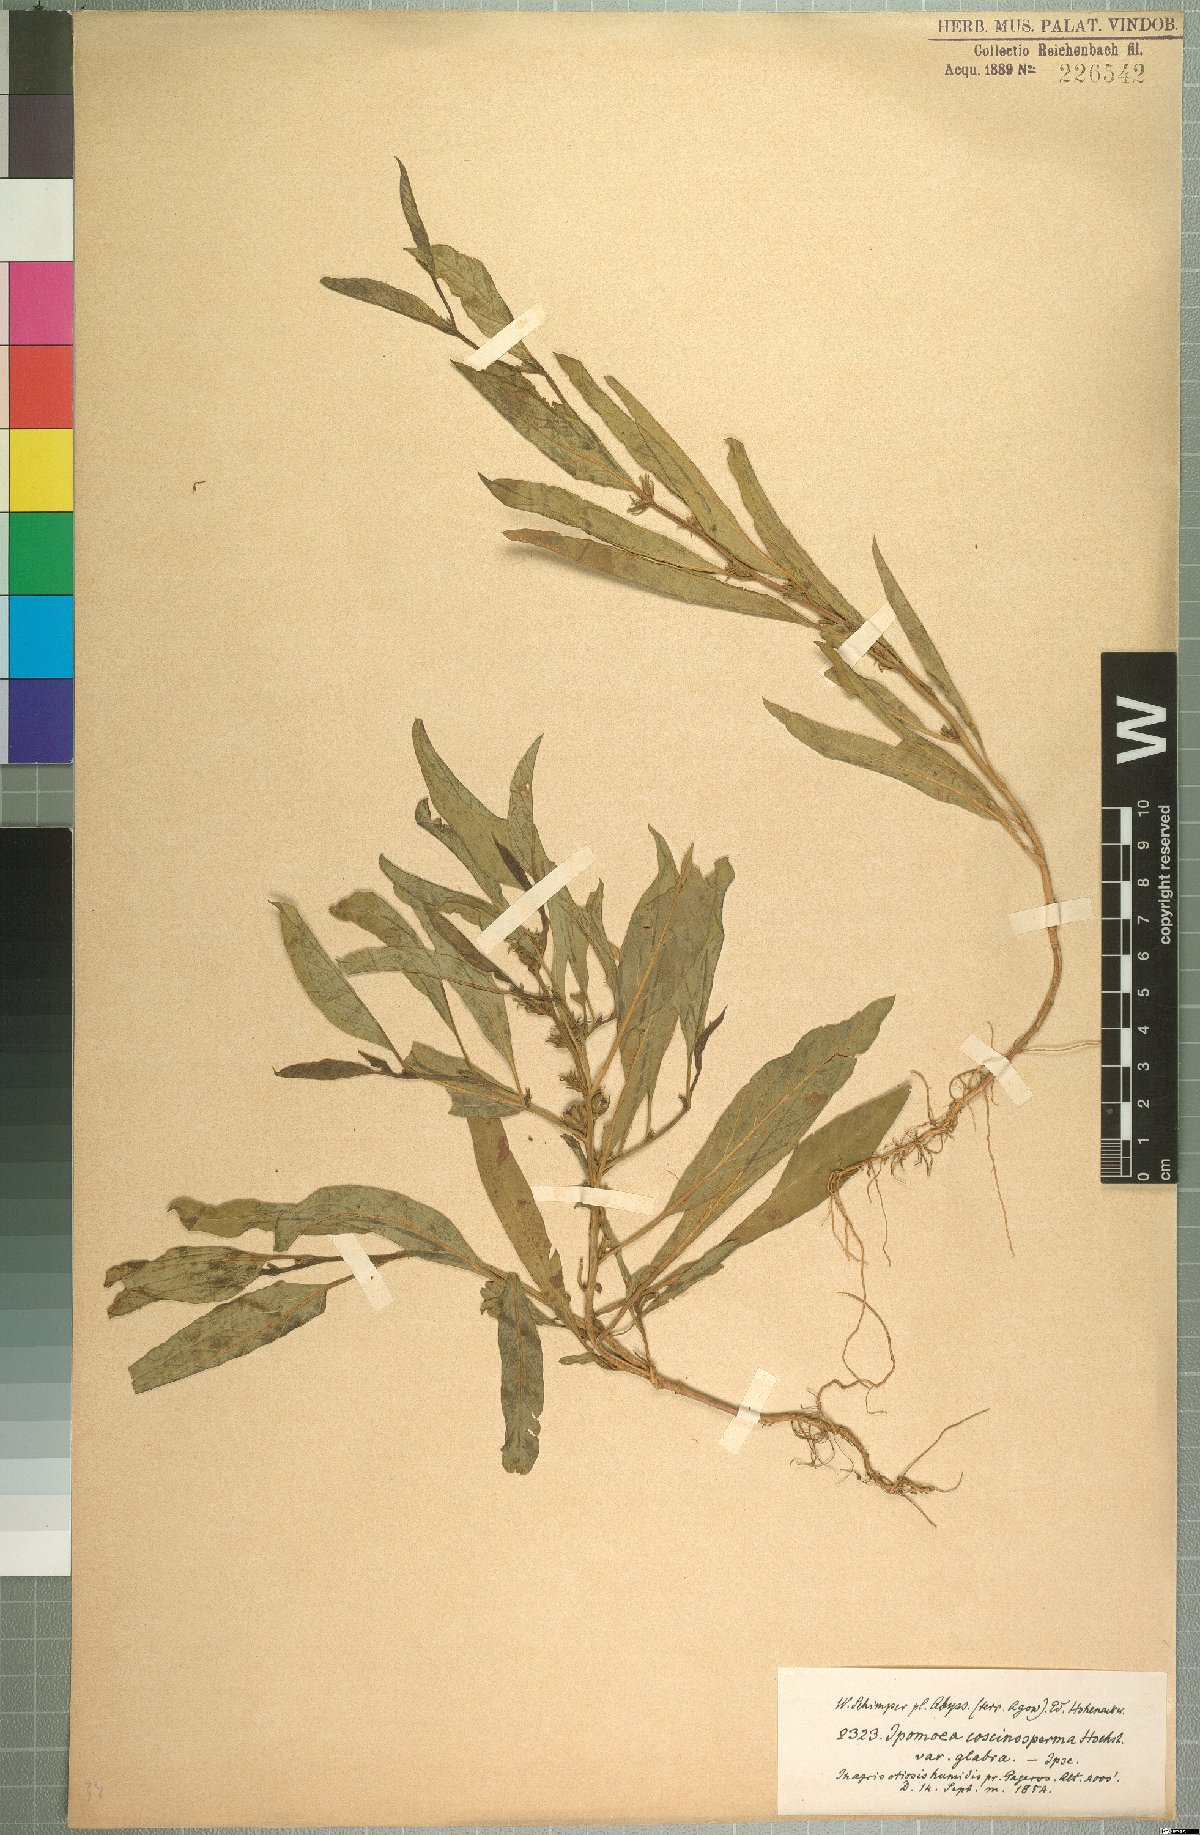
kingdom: Plantae
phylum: Tracheophyta
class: Magnoliopsida
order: Solanales
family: Convolvulaceae
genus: Ipomoea
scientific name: Ipomoea coscinosperma
